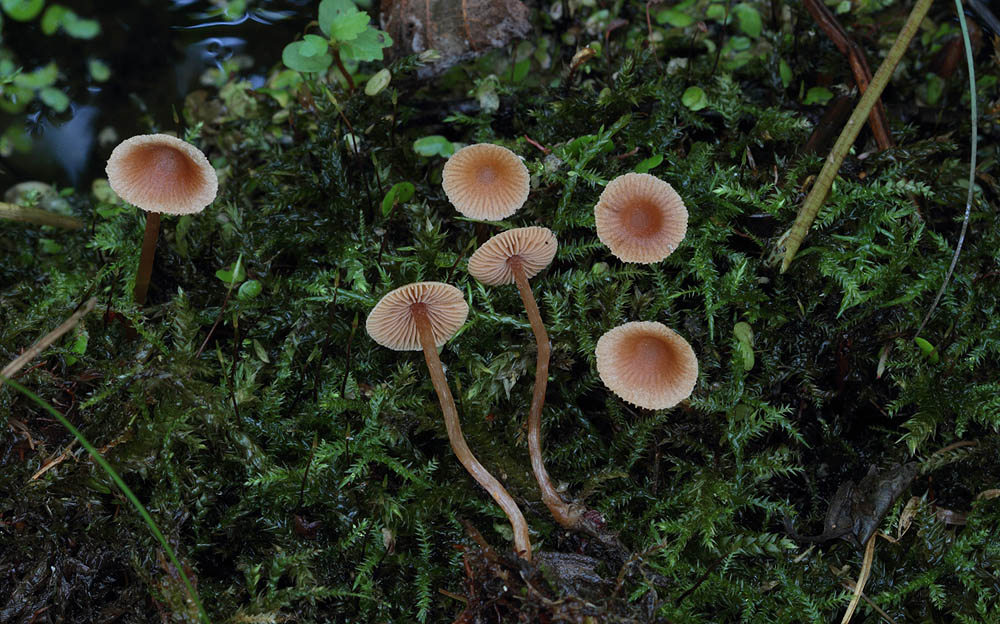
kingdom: Fungi
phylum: Basidiomycota
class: Agaricomycetes
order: Agaricales
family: Hymenogastraceae
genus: Naucoria
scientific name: Naucoria scolecina
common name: mørk elle-knaphat
